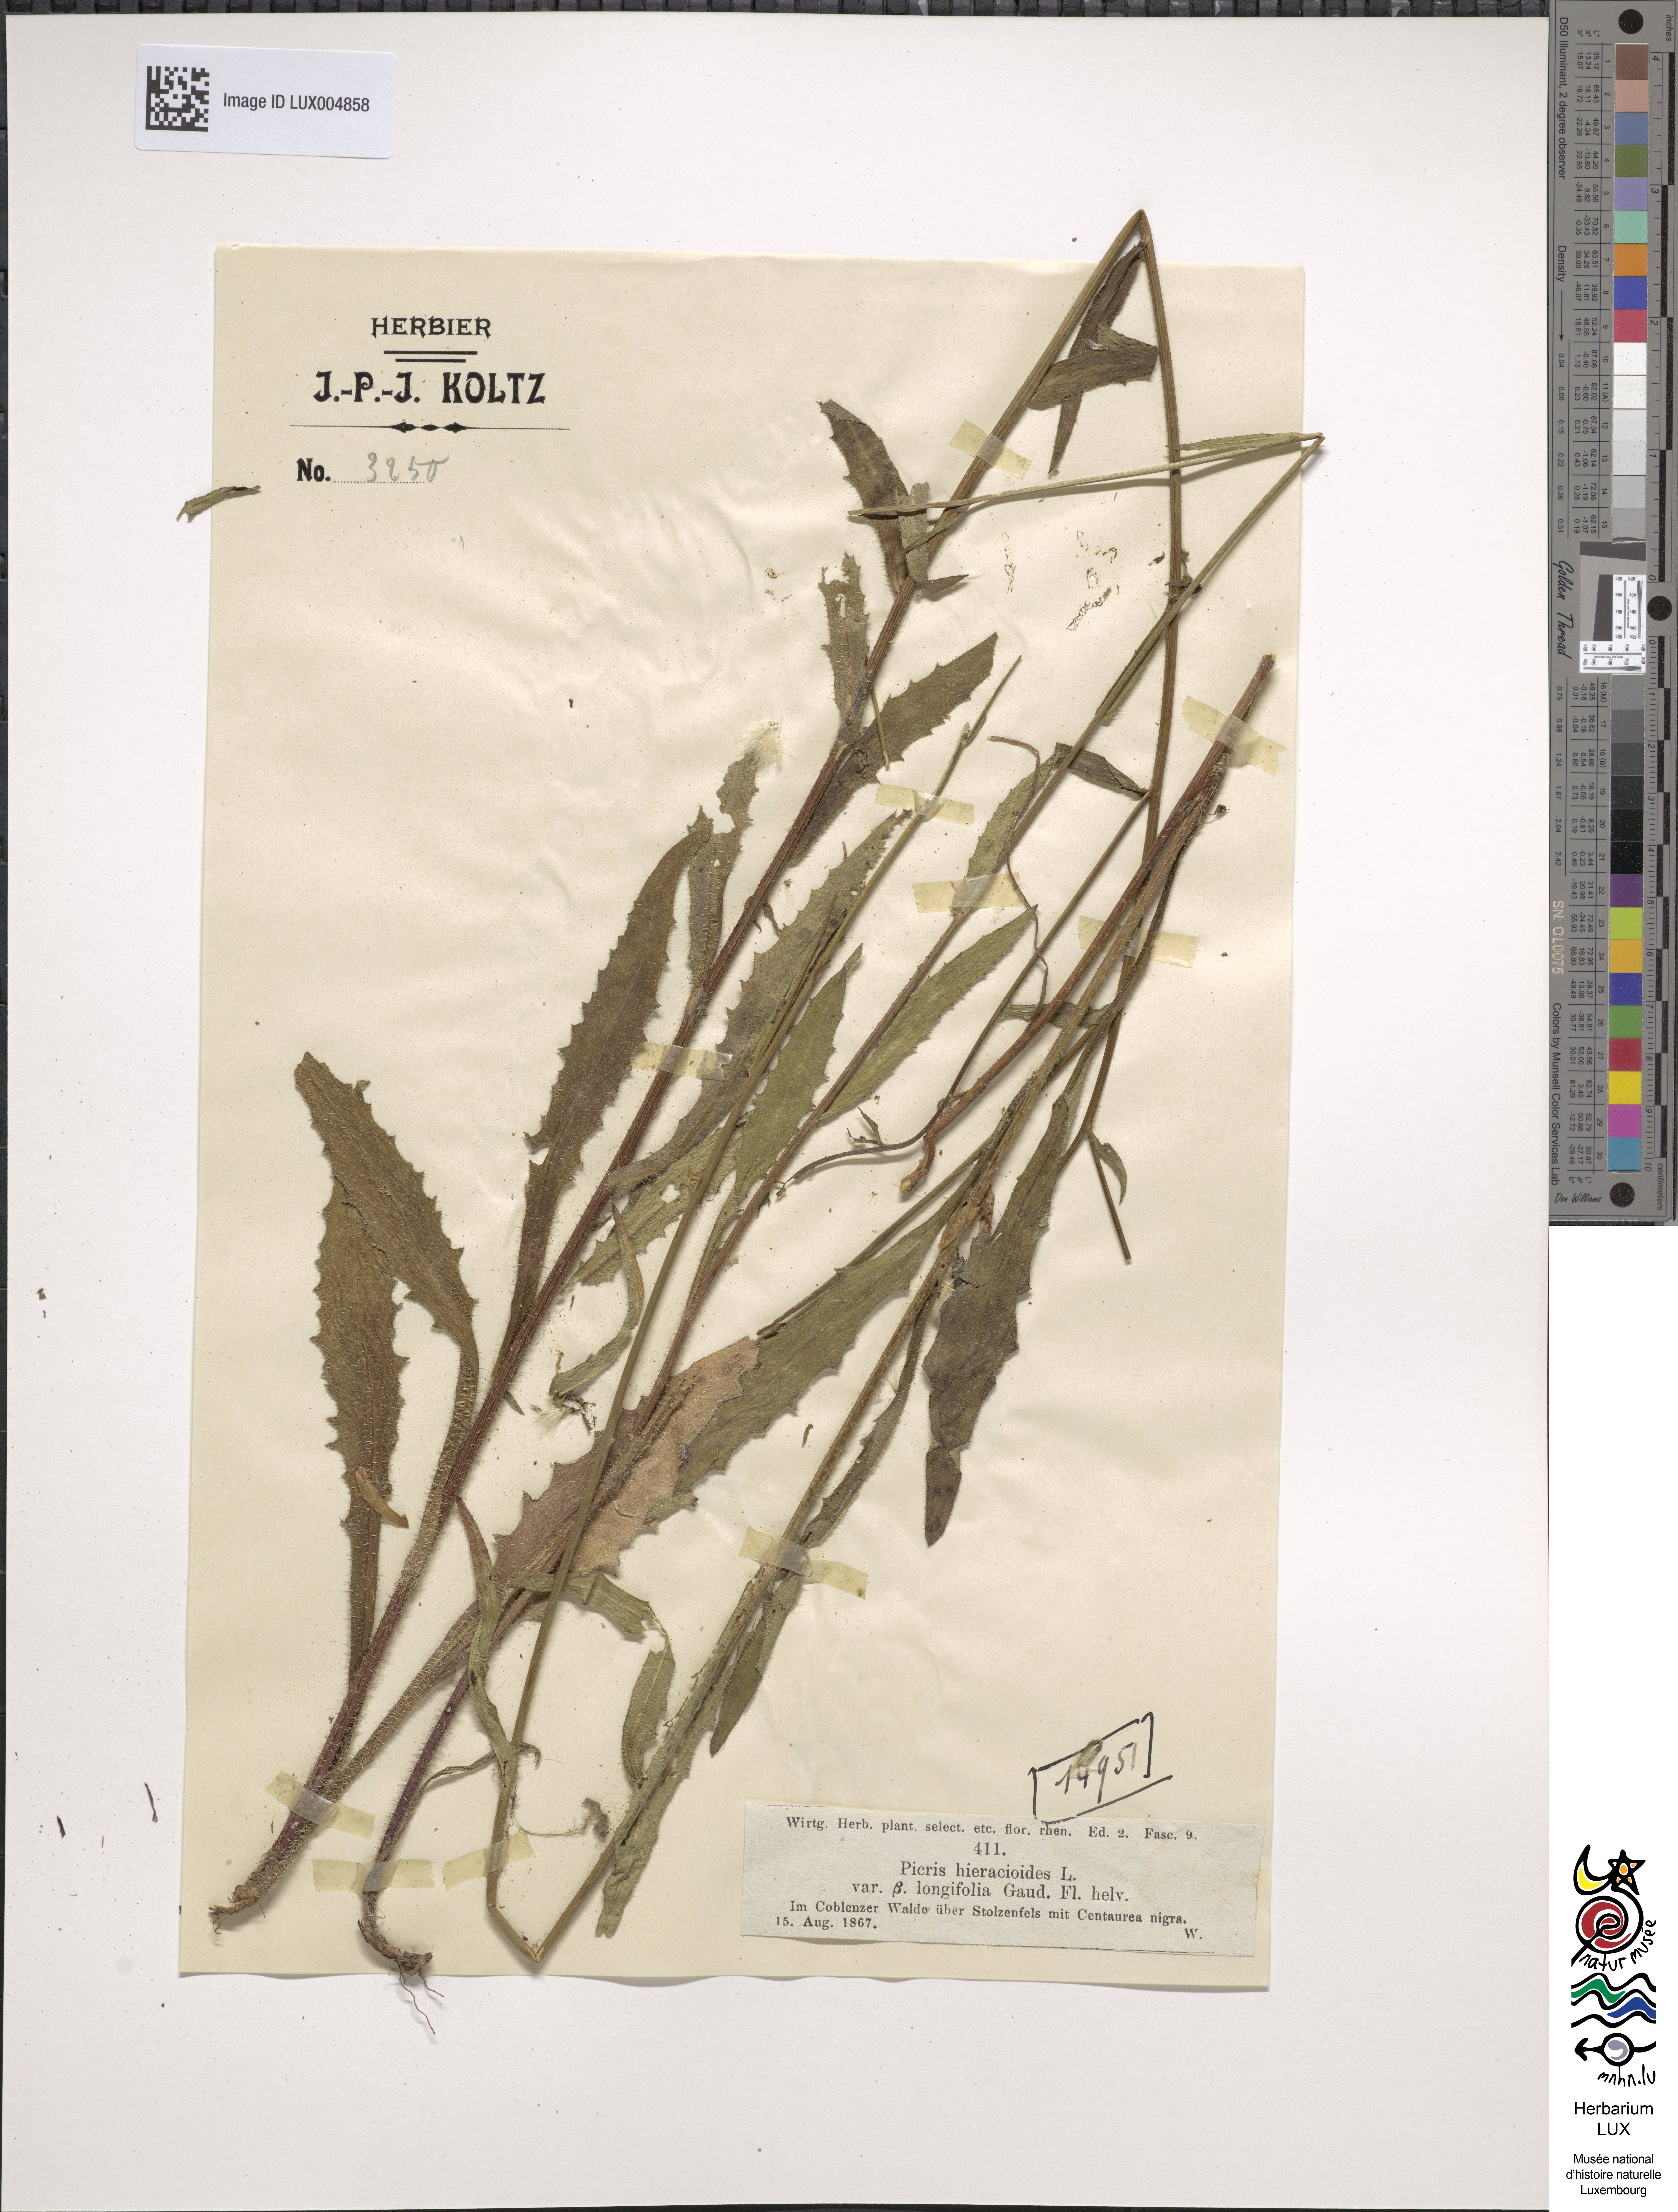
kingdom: Plantae
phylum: Tracheophyta
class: Magnoliopsida
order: Asterales
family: Asteraceae
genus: Picris
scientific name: Picris hieracioides
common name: Hawkweed oxtongue
